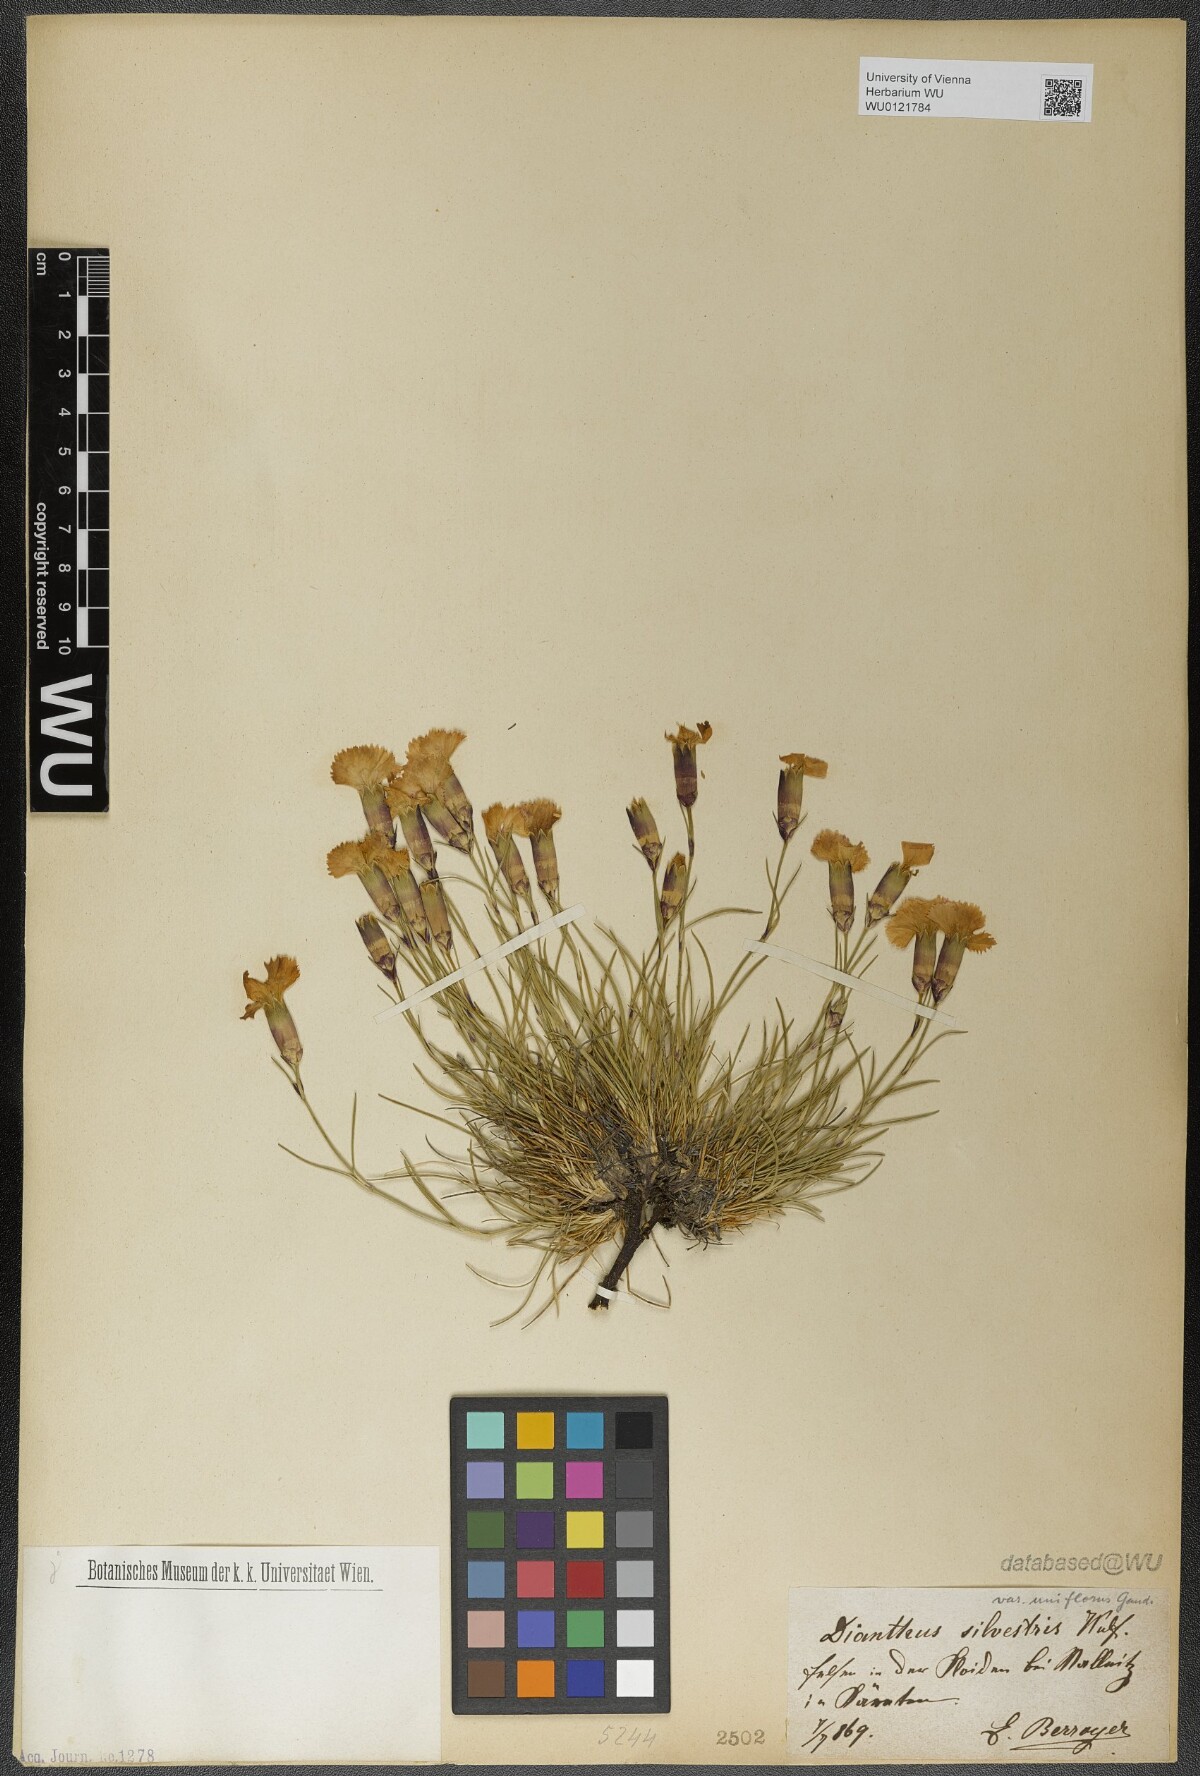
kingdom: Plantae
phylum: Tracheophyta
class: Magnoliopsida
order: Caryophyllales
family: Caryophyllaceae
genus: Dianthus
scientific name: Dianthus sylvestris
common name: Wood pink
